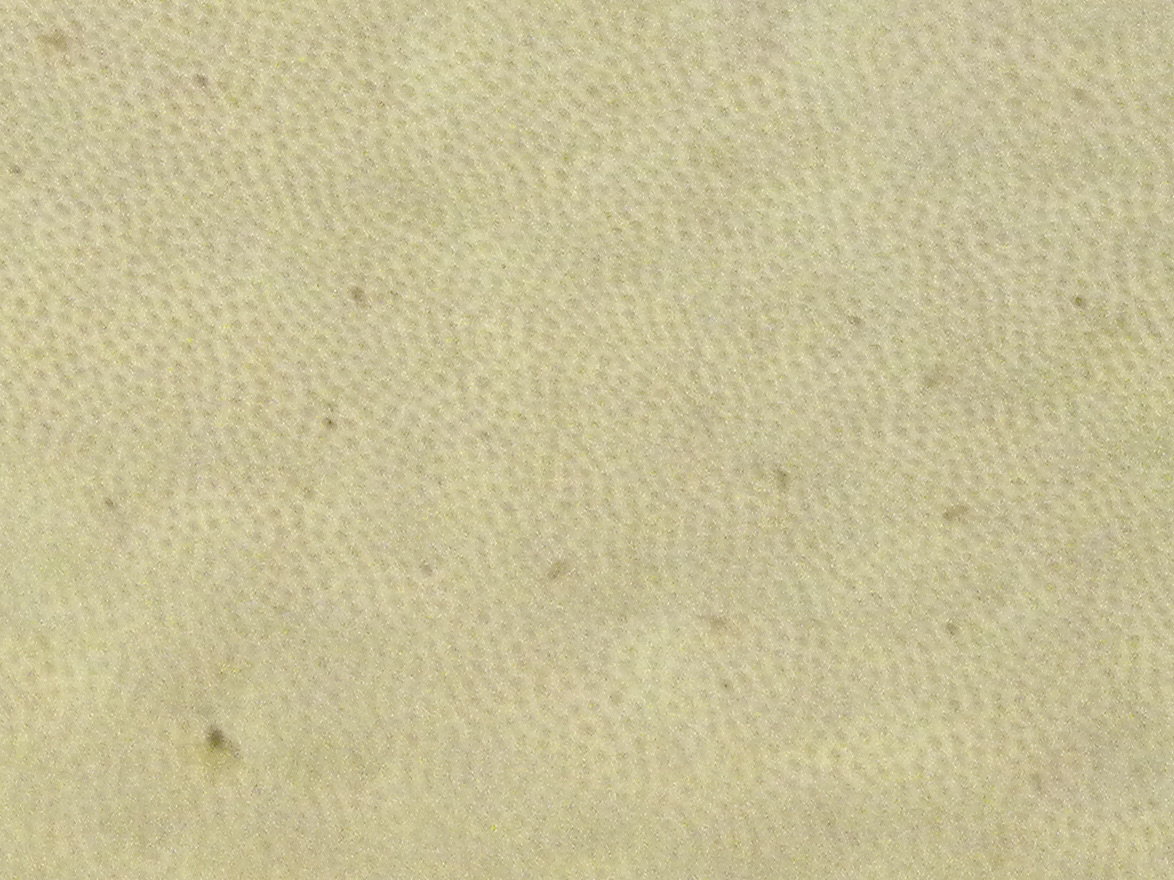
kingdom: Fungi
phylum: Basidiomycota
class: Agaricomycetes
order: Polyporales
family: Fomitopsidaceae
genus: Fomitopsis
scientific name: Fomitopsis pinicola
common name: randbæltet hovporesvamp
